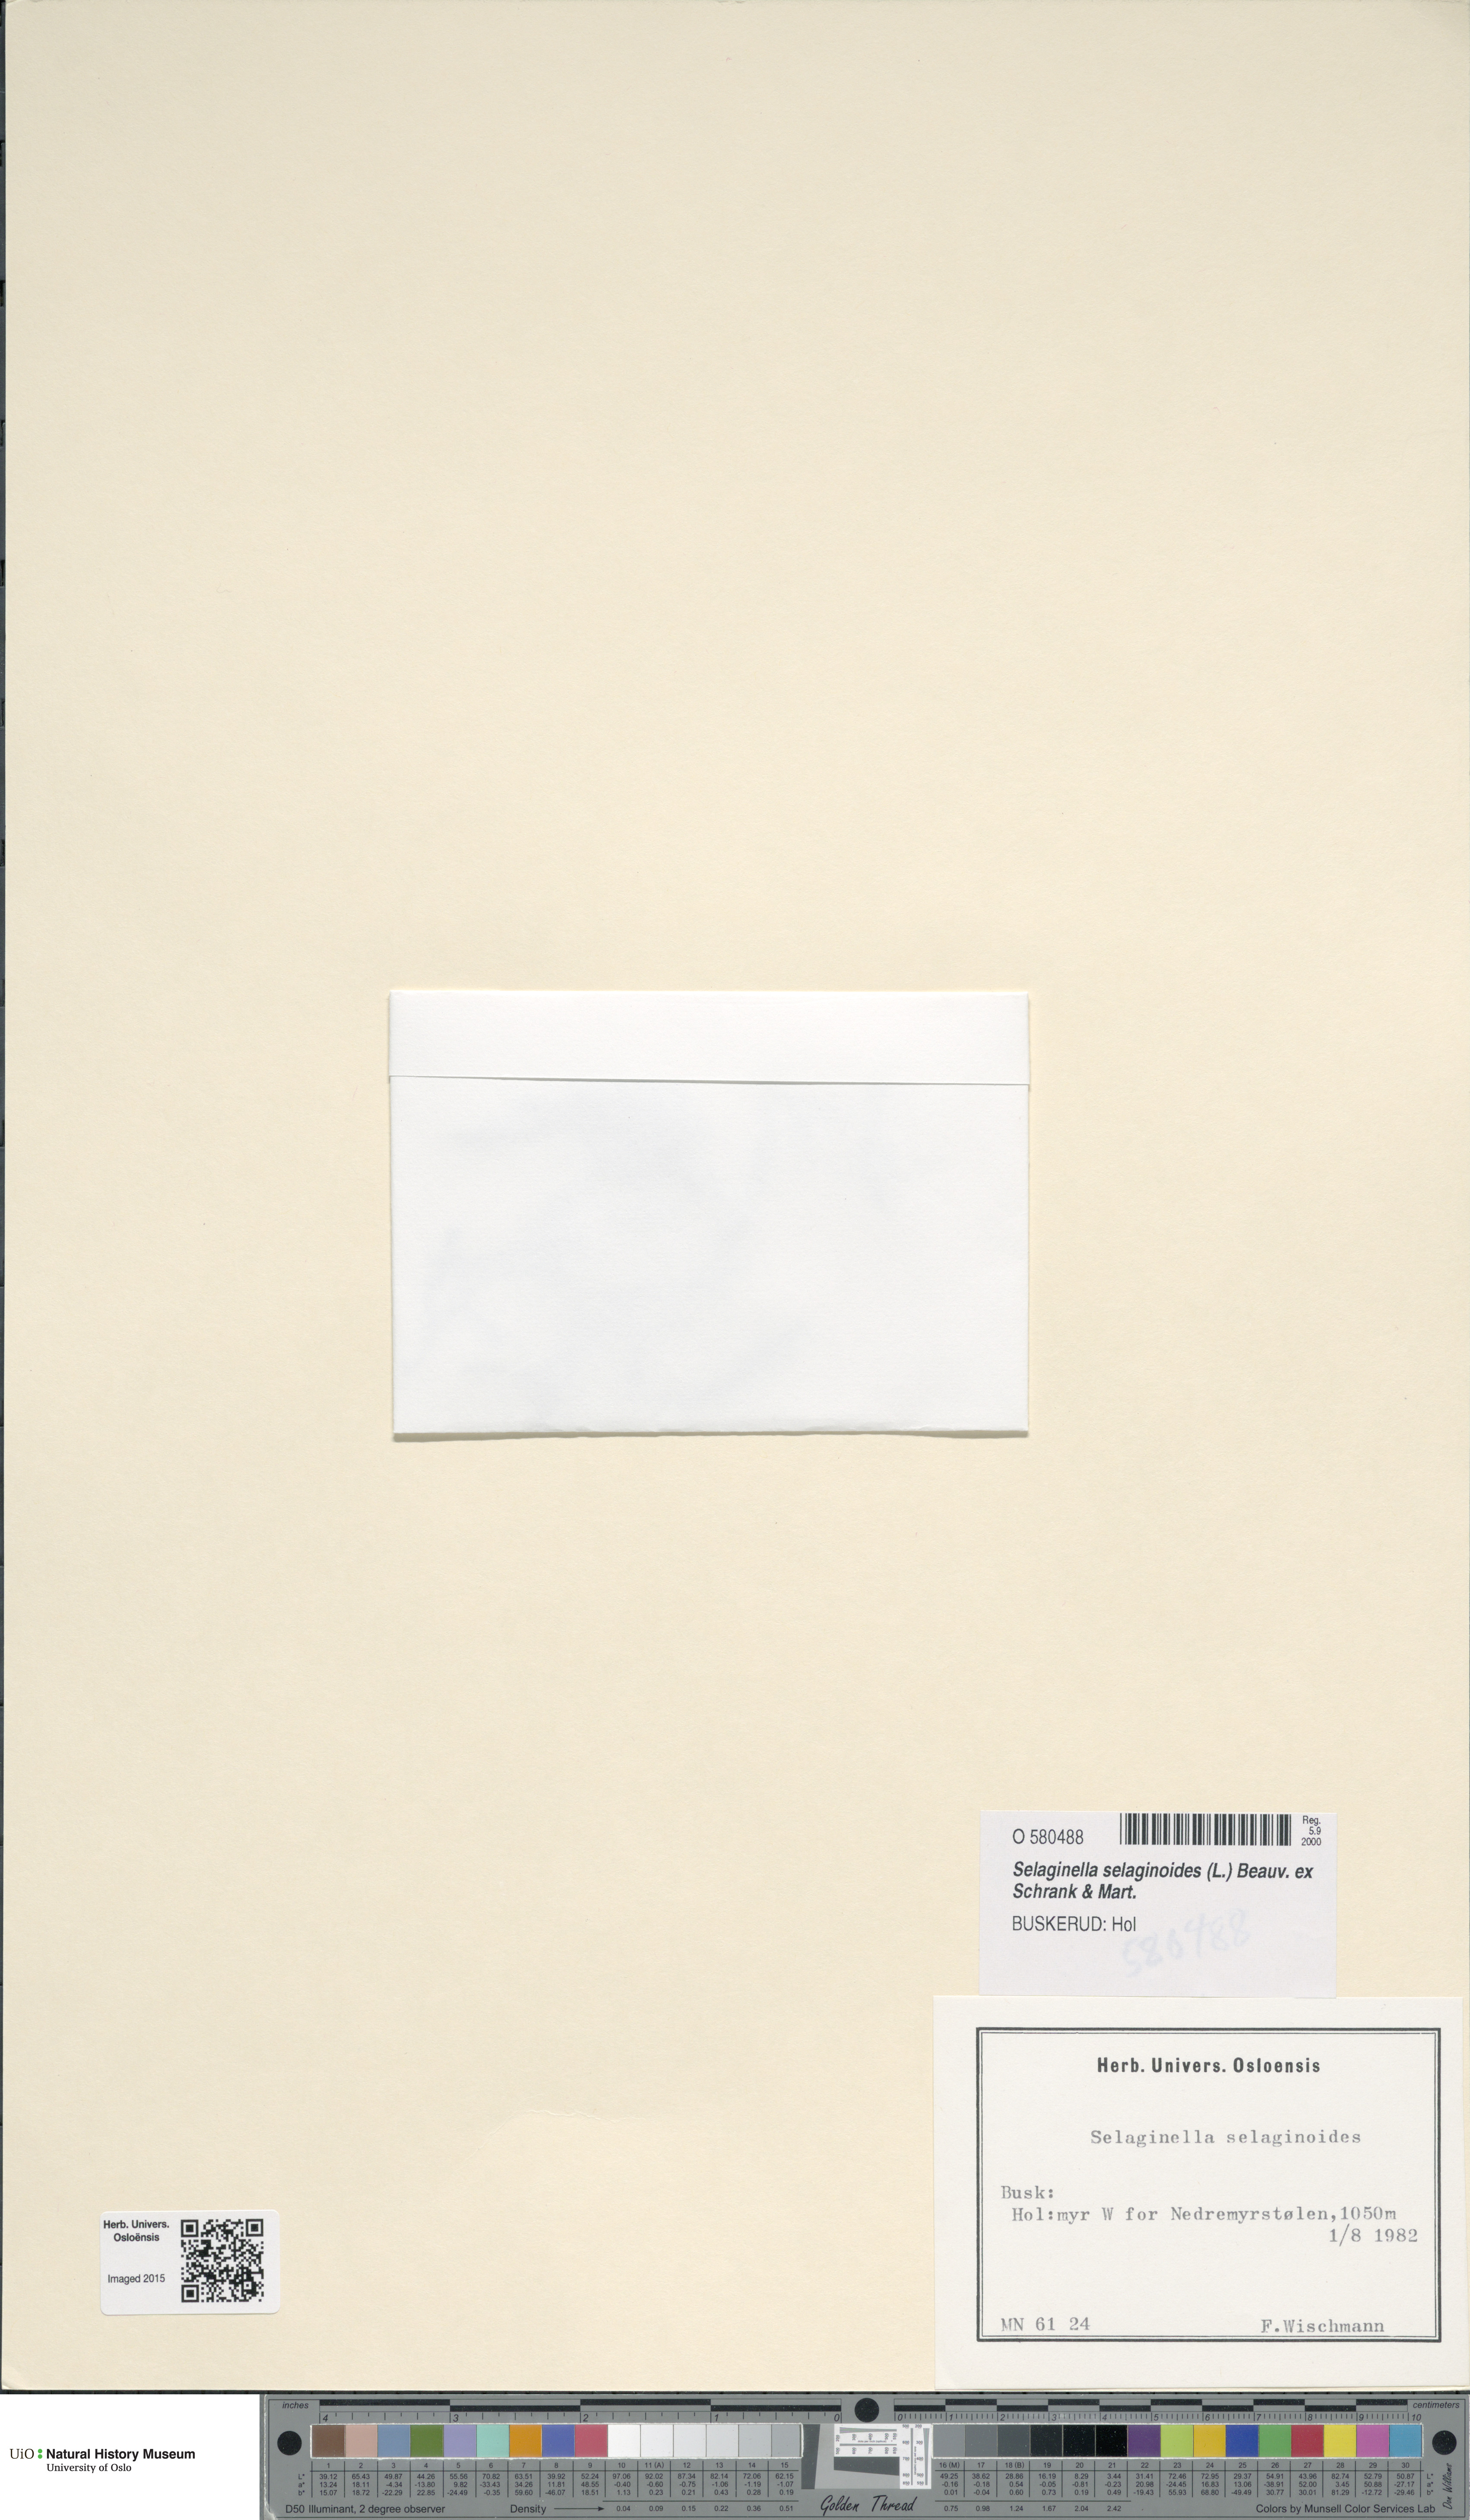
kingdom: Plantae
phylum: Tracheophyta
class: Lycopodiopsida
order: Selaginellales
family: Selaginellaceae
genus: Selaginella
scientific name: Selaginella selaginoides
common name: Prickly mountain-moss
